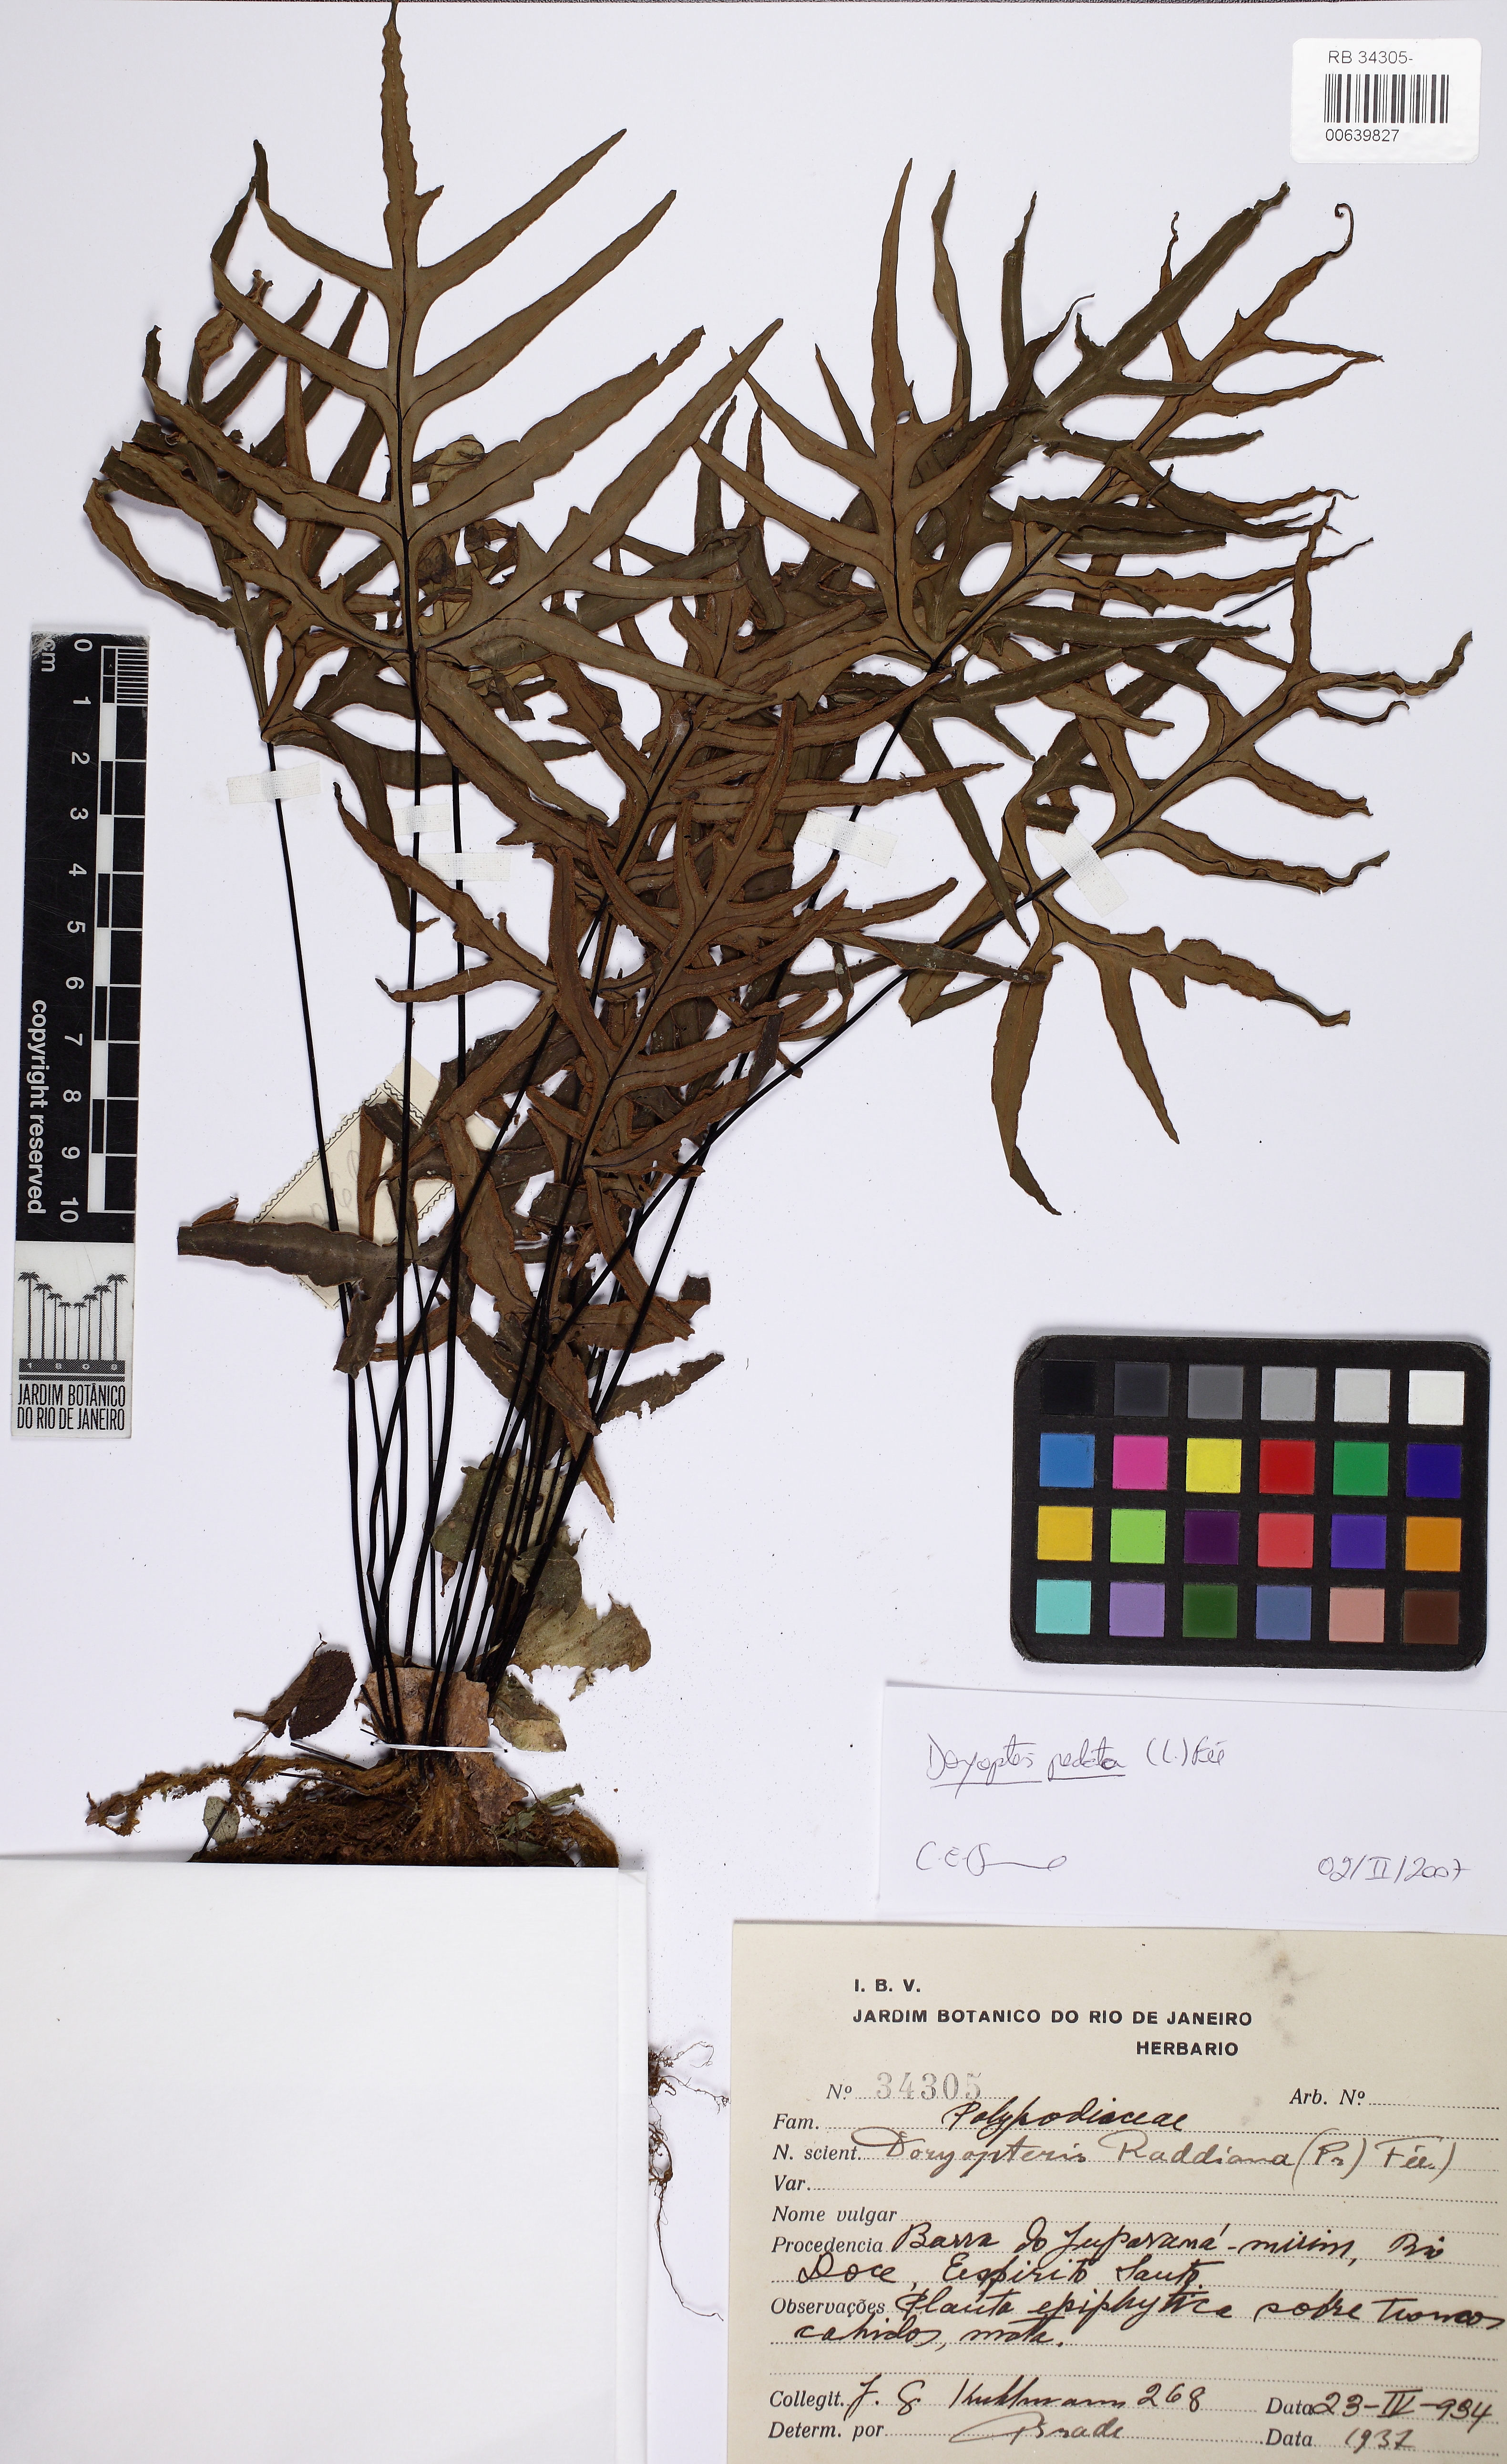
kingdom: Plantae
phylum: Tracheophyta
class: Polypodiopsida
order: Polypodiales
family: Pteridaceae
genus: Doryopteris
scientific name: Doryopteris raddiana
